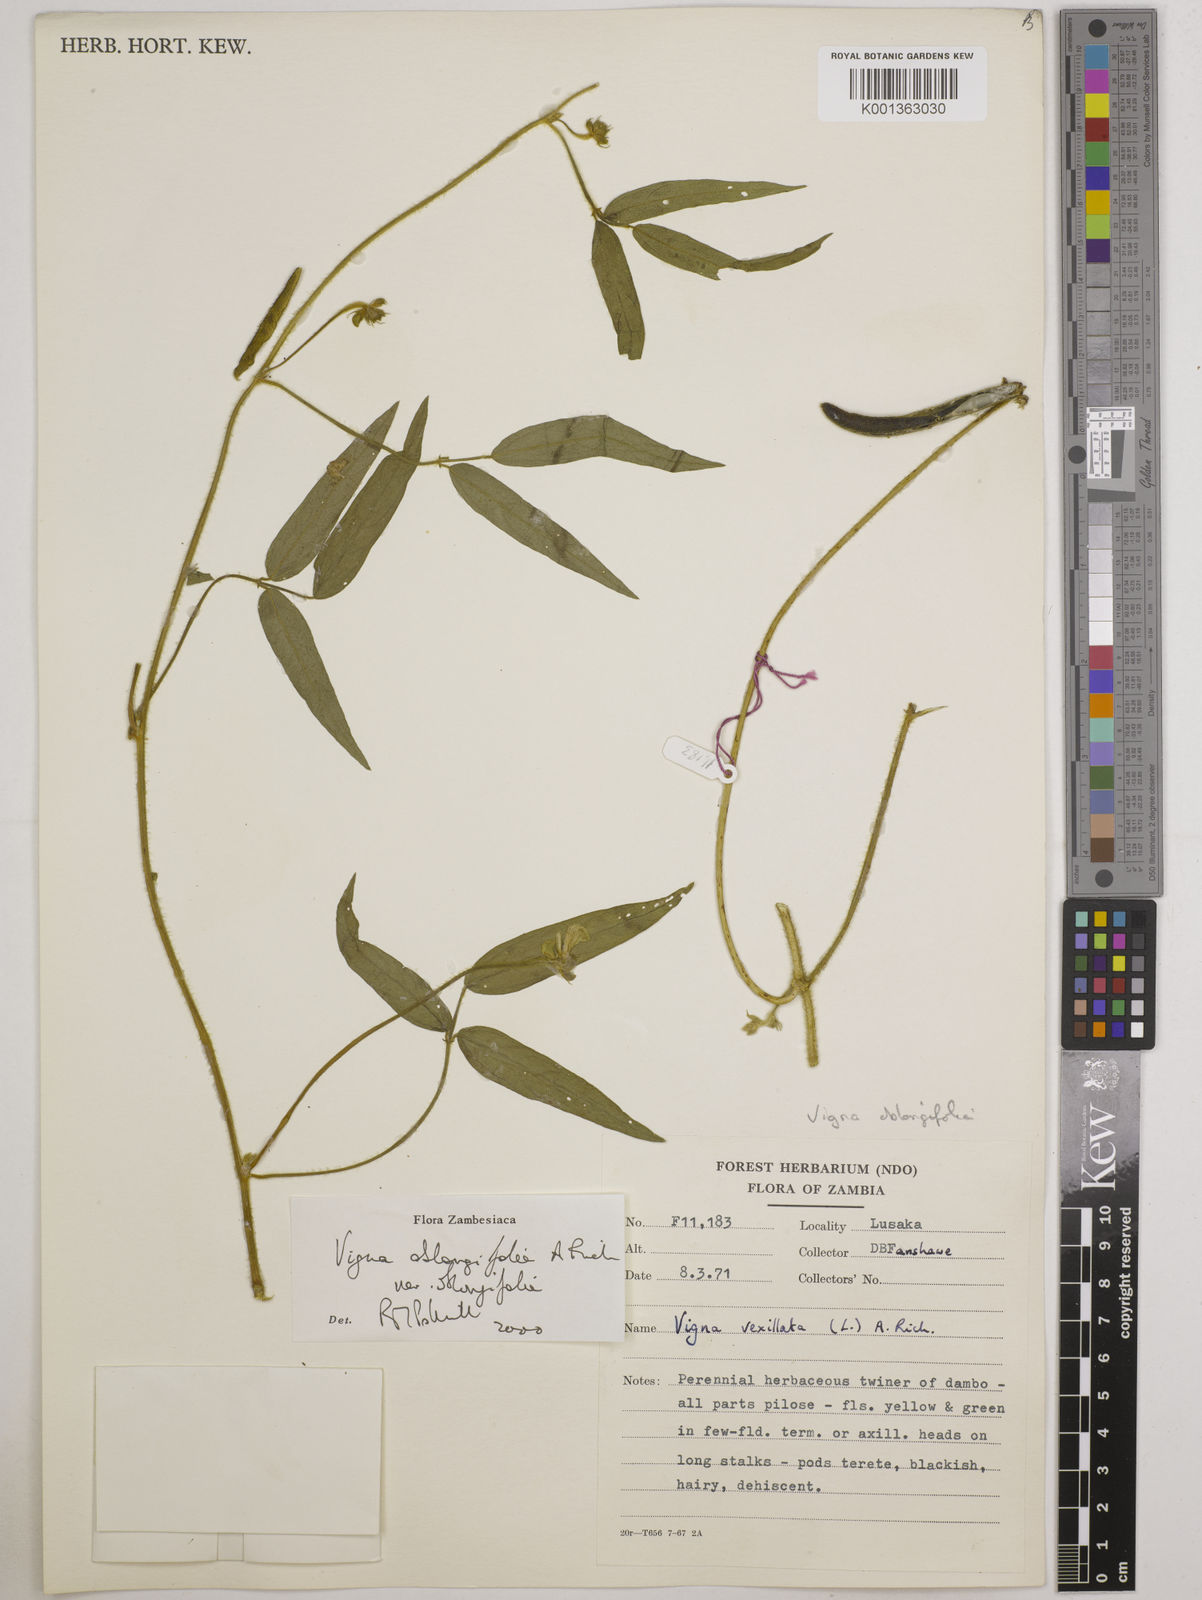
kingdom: Plantae
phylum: Tracheophyta
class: Magnoliopsida
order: Fabales
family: Fabaceae
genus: Vigna
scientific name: Vigna oblongifolia
